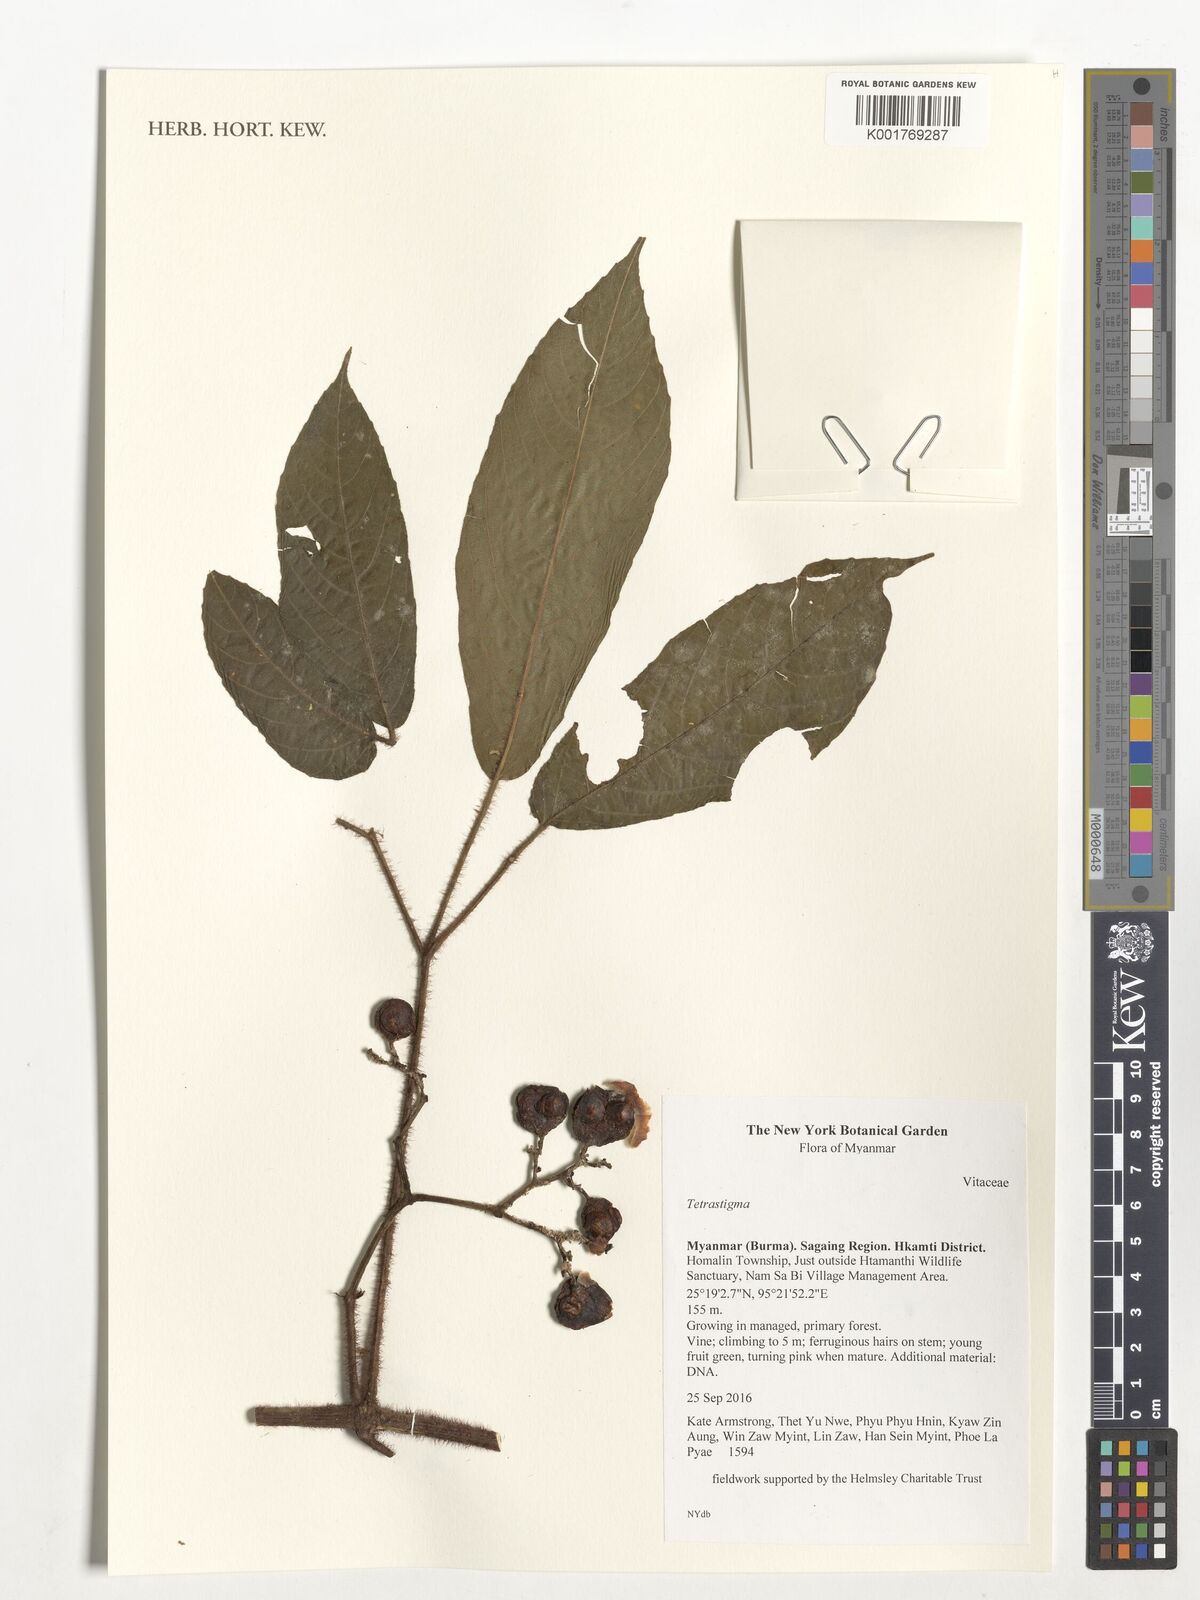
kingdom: Plantae
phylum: Tracheophyta
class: Magnoliopsida
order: Vitales
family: Vitaceae
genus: Tetrastigma
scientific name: Tetrastigma
